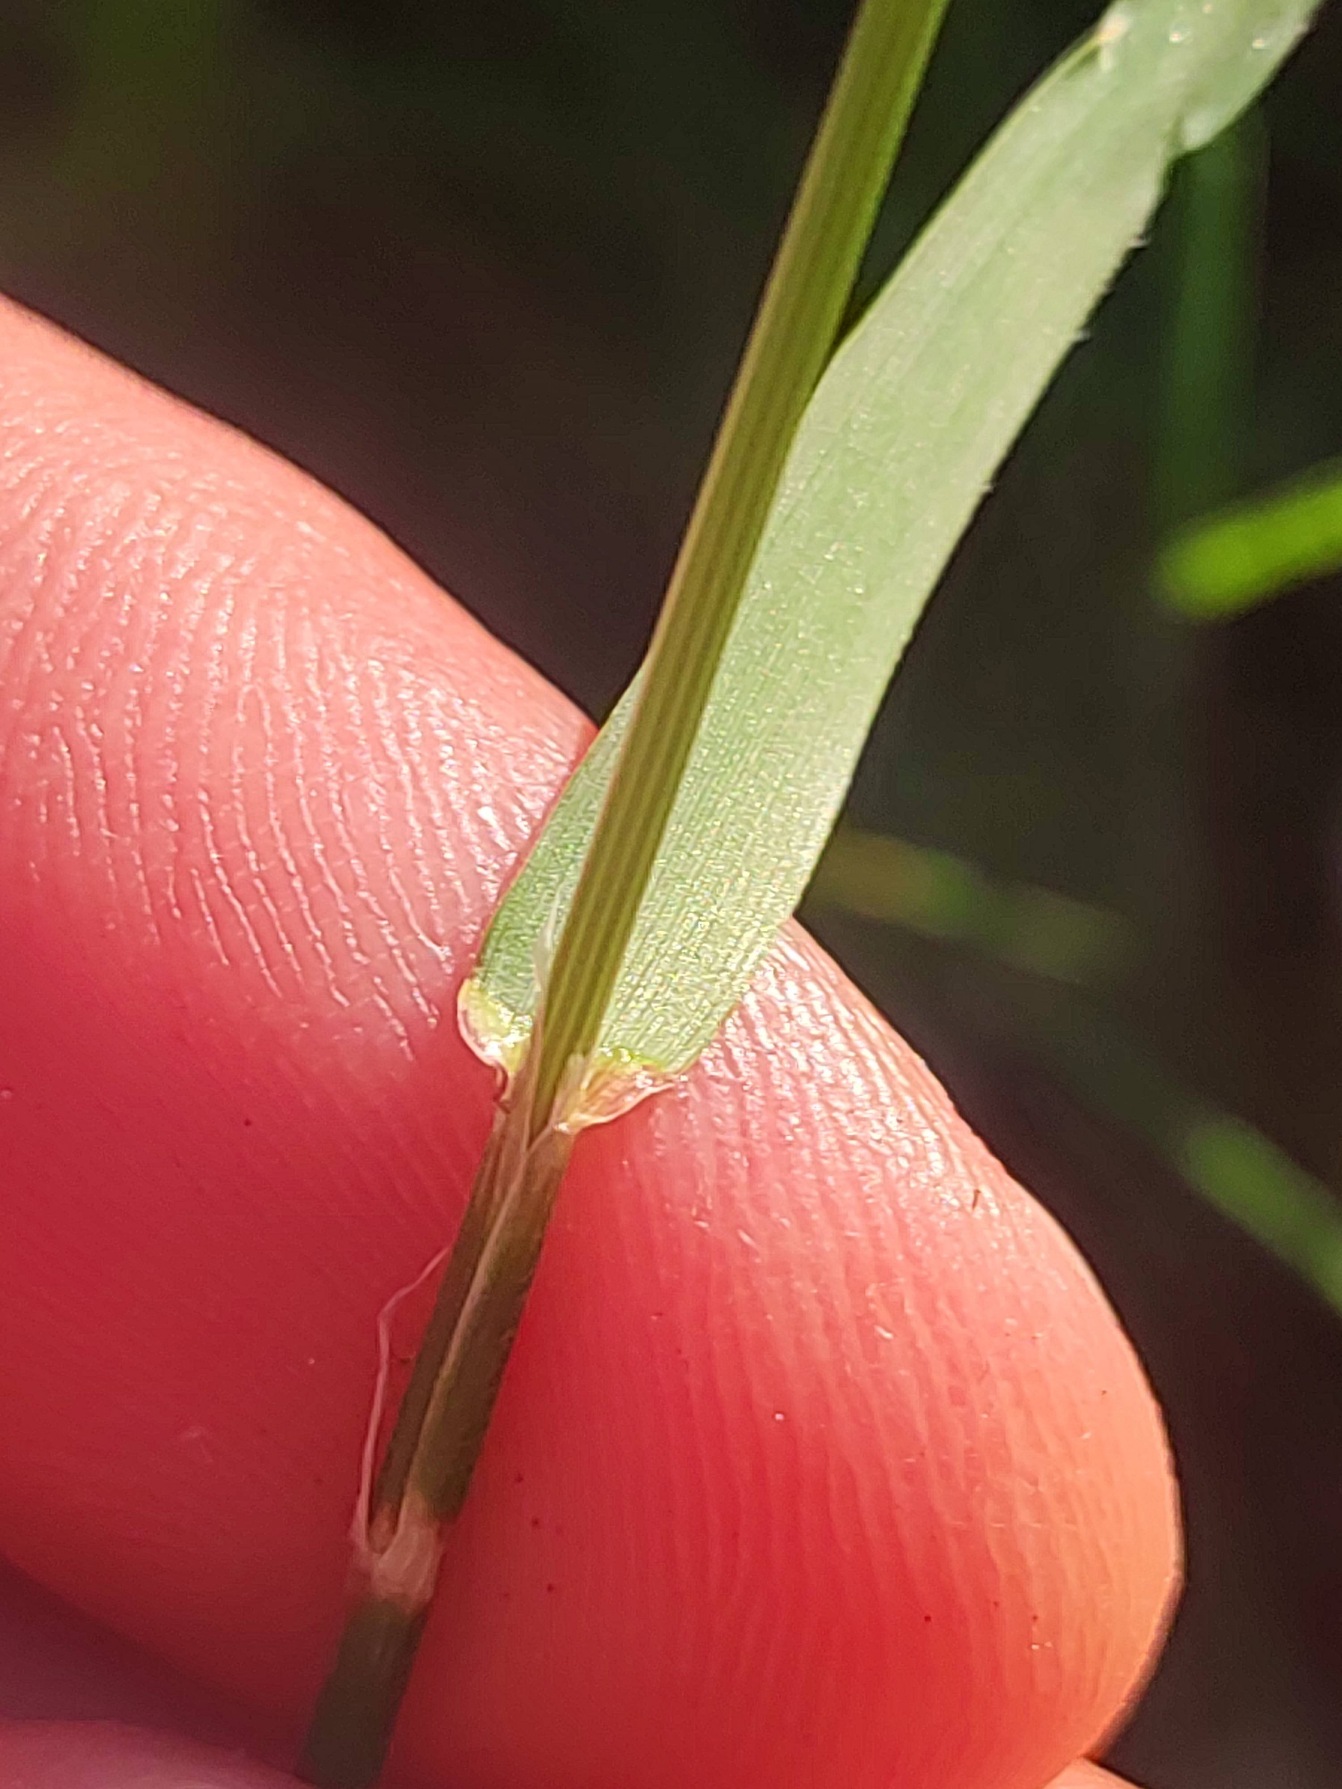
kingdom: Plantae
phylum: Tracheophyta
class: Liliopsida
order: Poales
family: Poaceae
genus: Anthoxanthum
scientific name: Anthoxanthum odoratum
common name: Vellugtende gulaks
